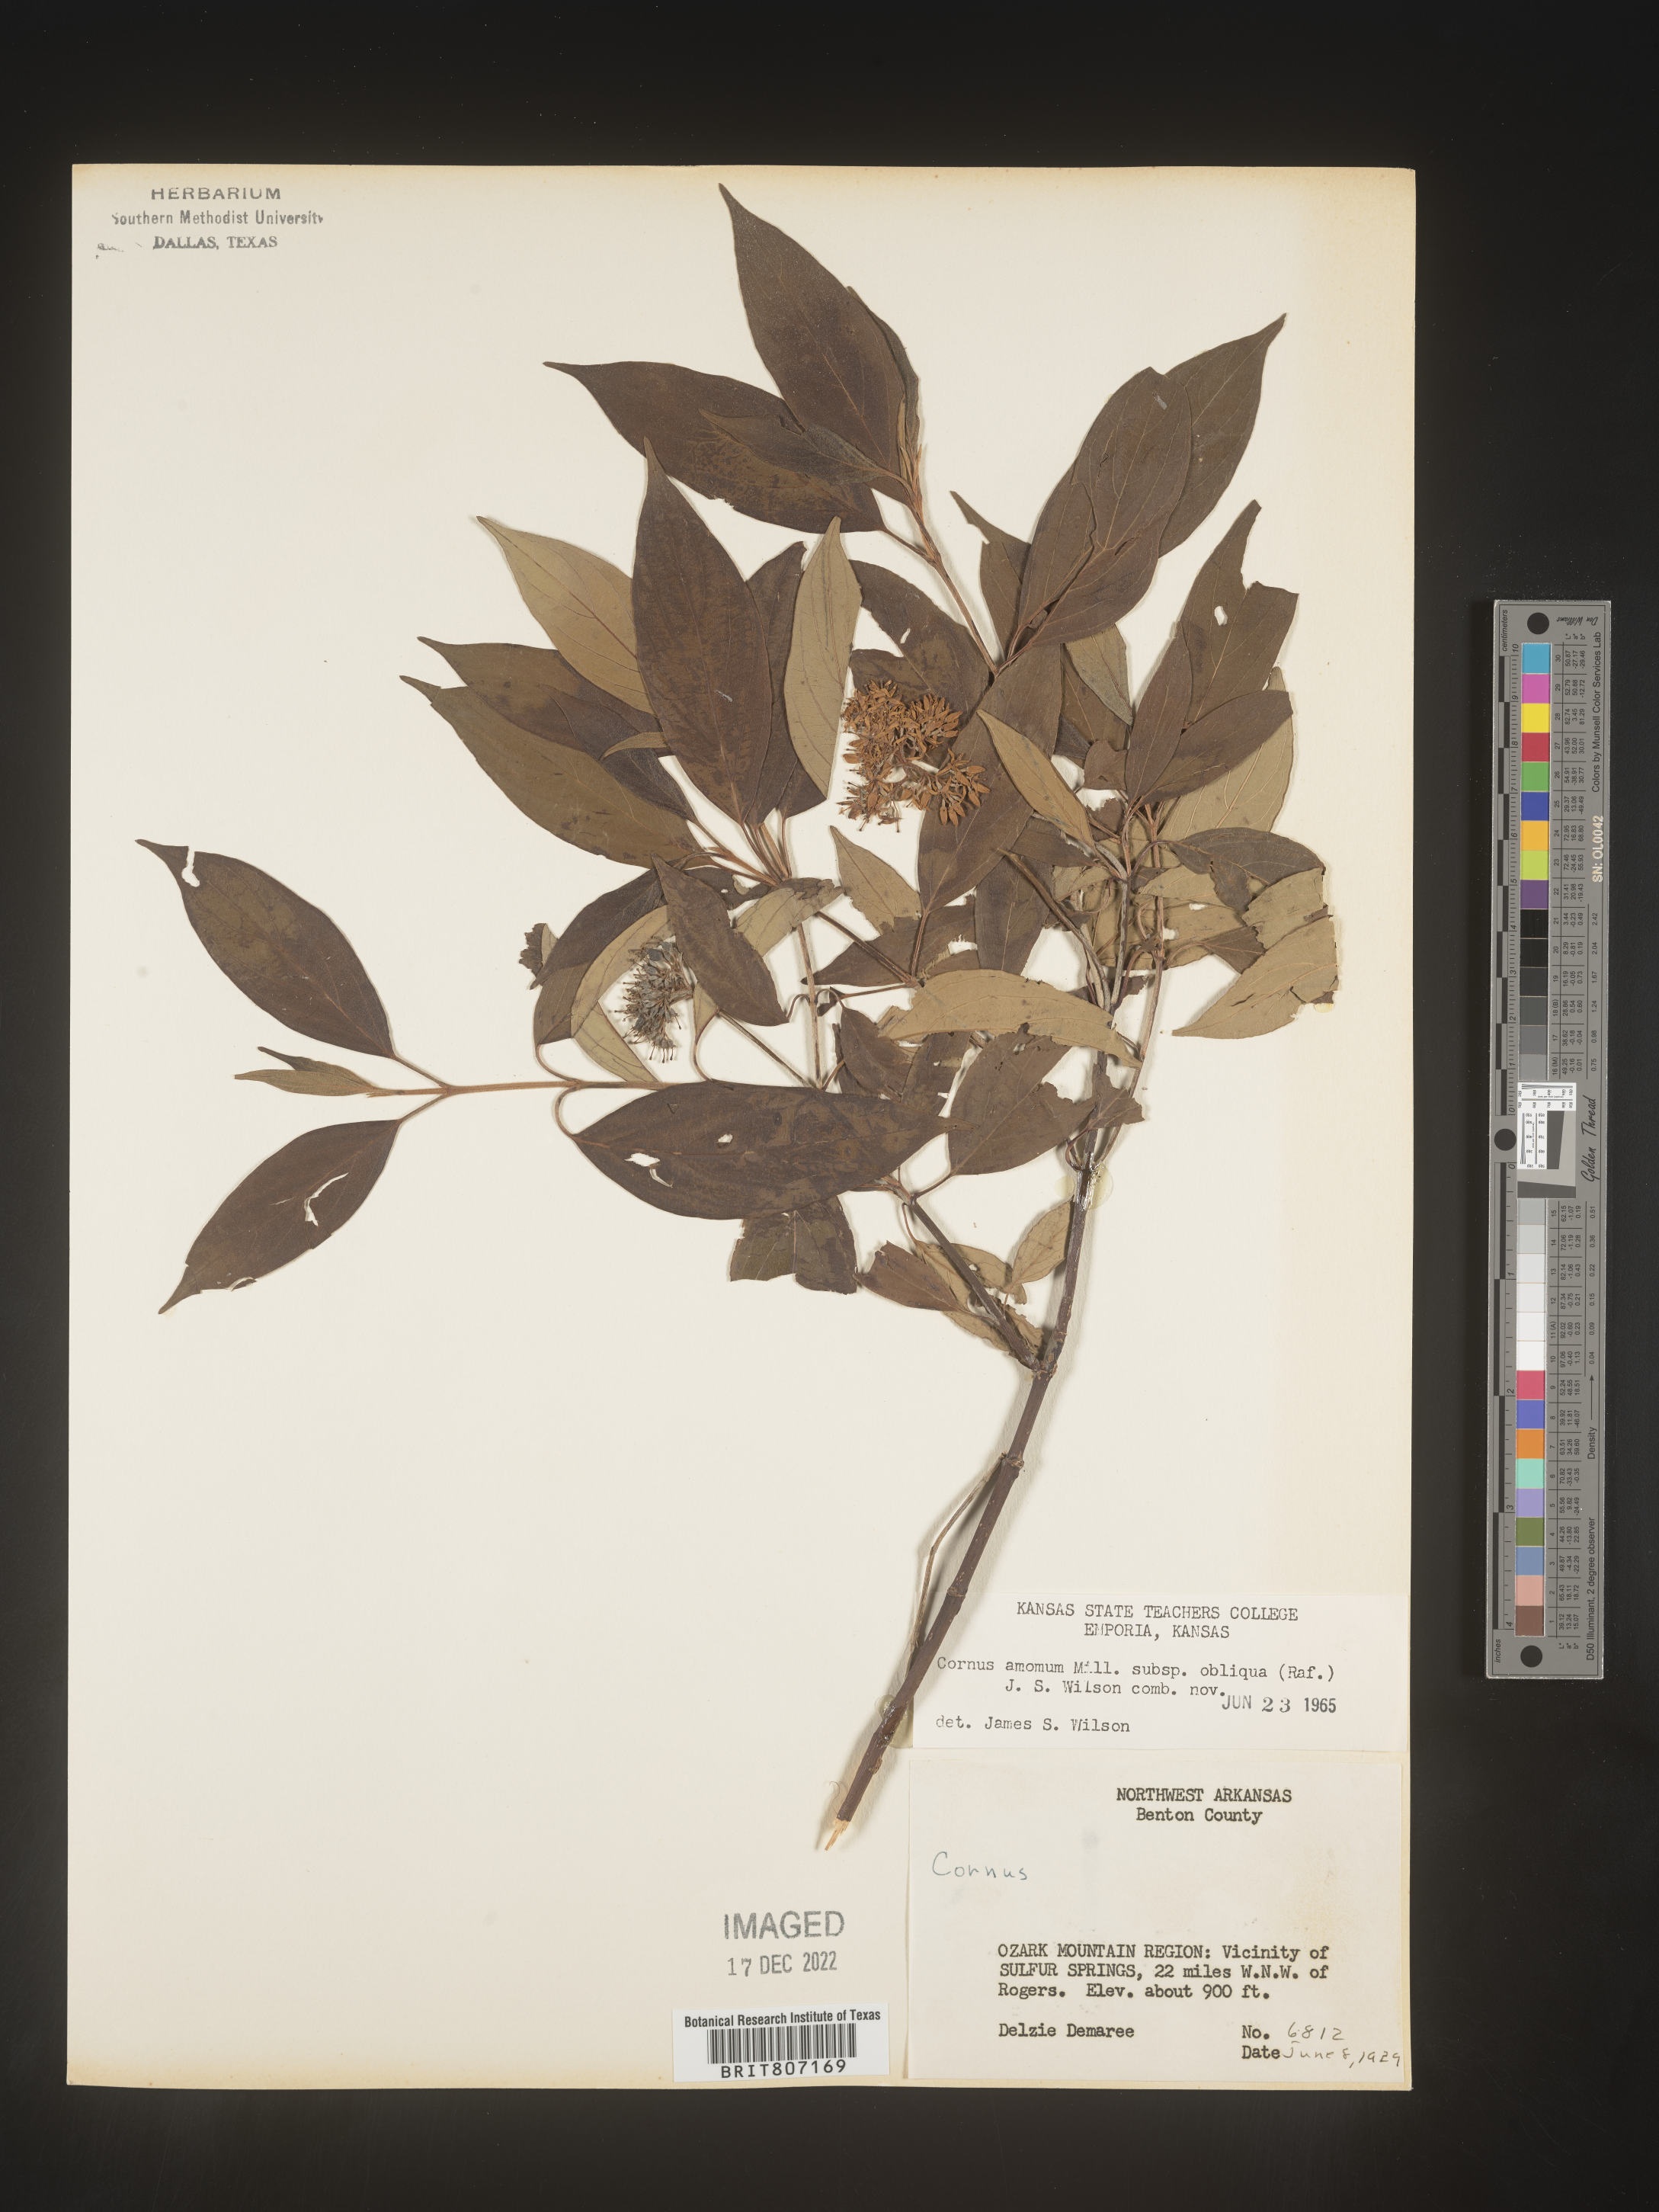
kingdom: Plantae
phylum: Tracheophyta
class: Magnoliopsida
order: Cornales
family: Cornaceae
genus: Cornus
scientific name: Cornus amomum
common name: Silky dogwood
